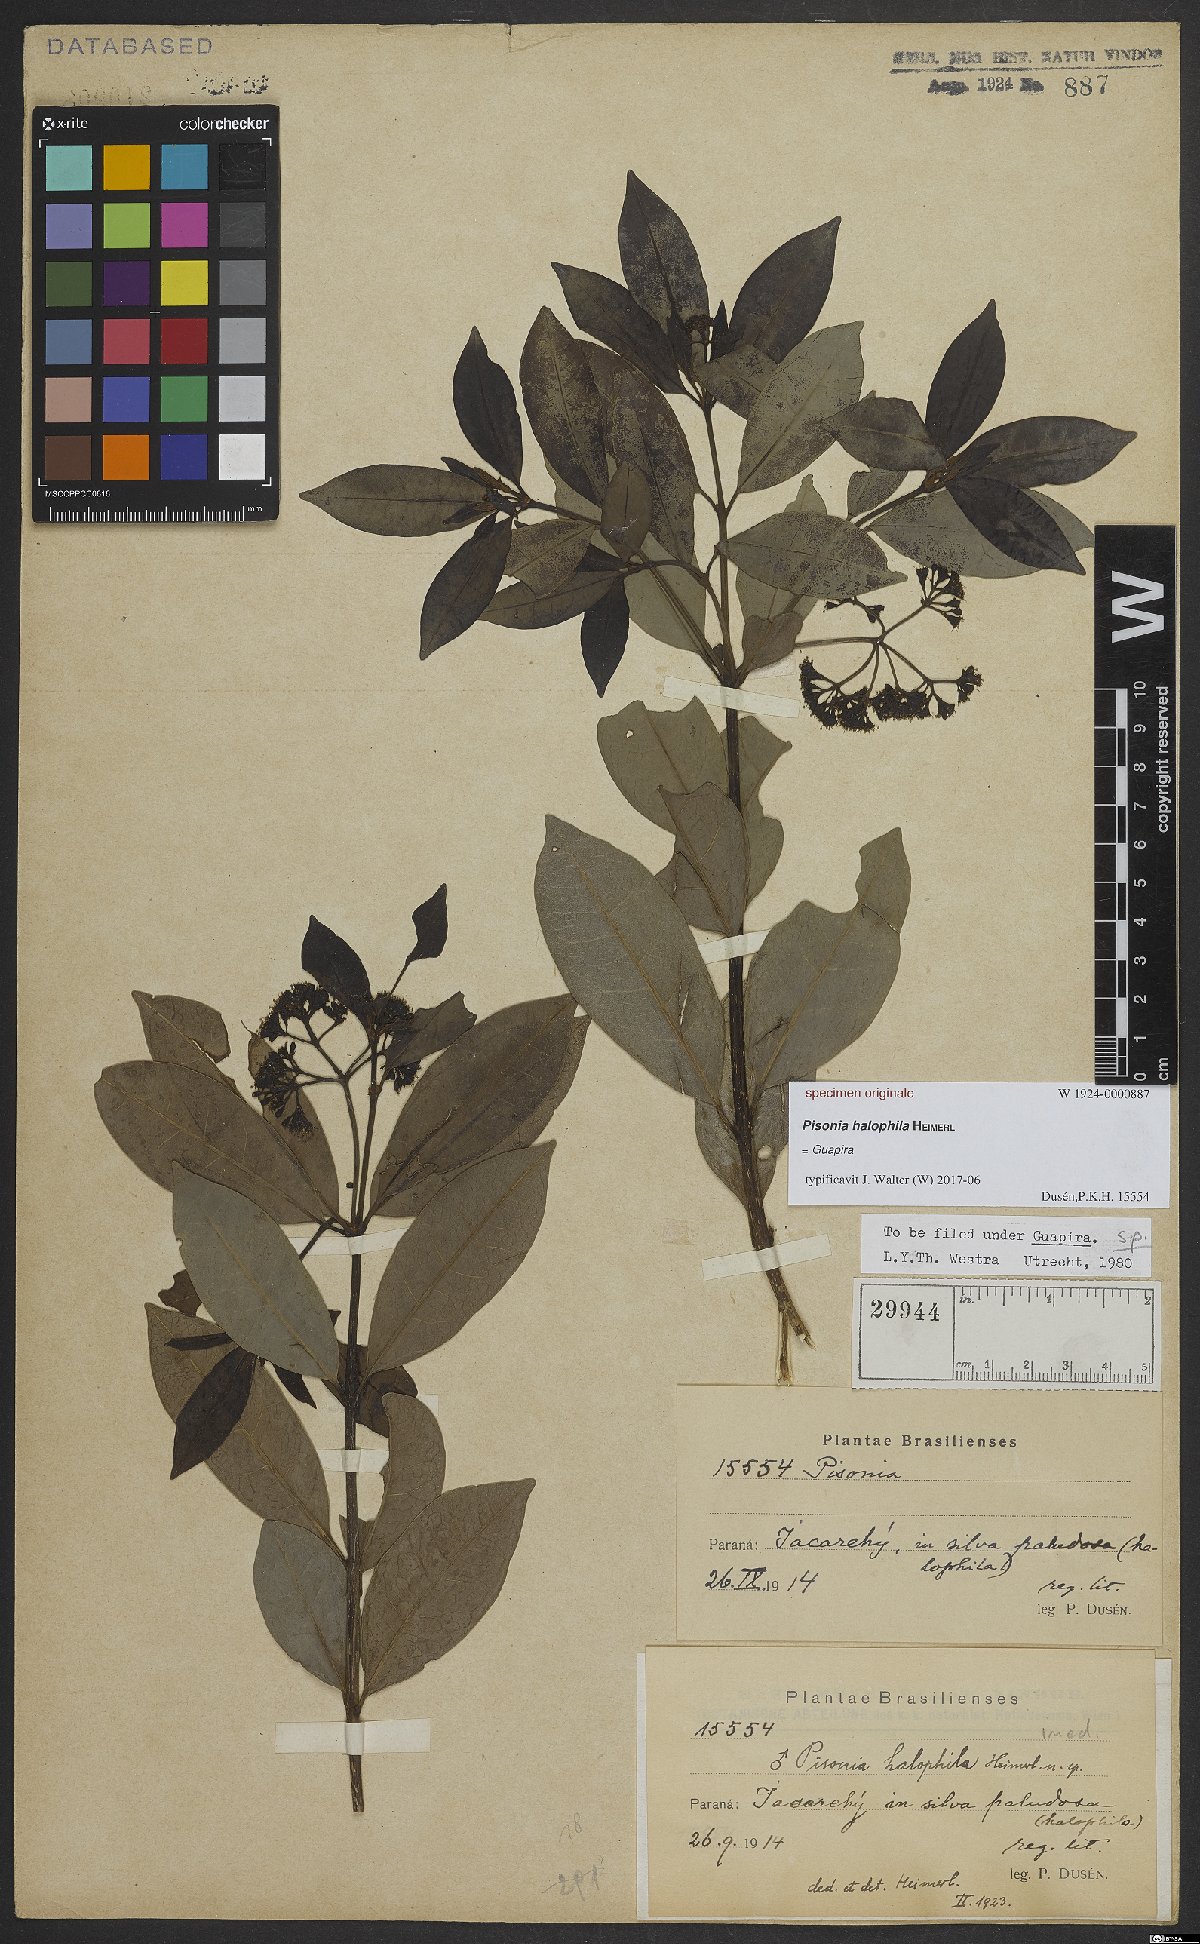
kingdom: Plantae
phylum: Tracheophyta
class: Magnoliopsida
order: Caryophyllales
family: Nyctaginaceae
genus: Guapira
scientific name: Guapira
